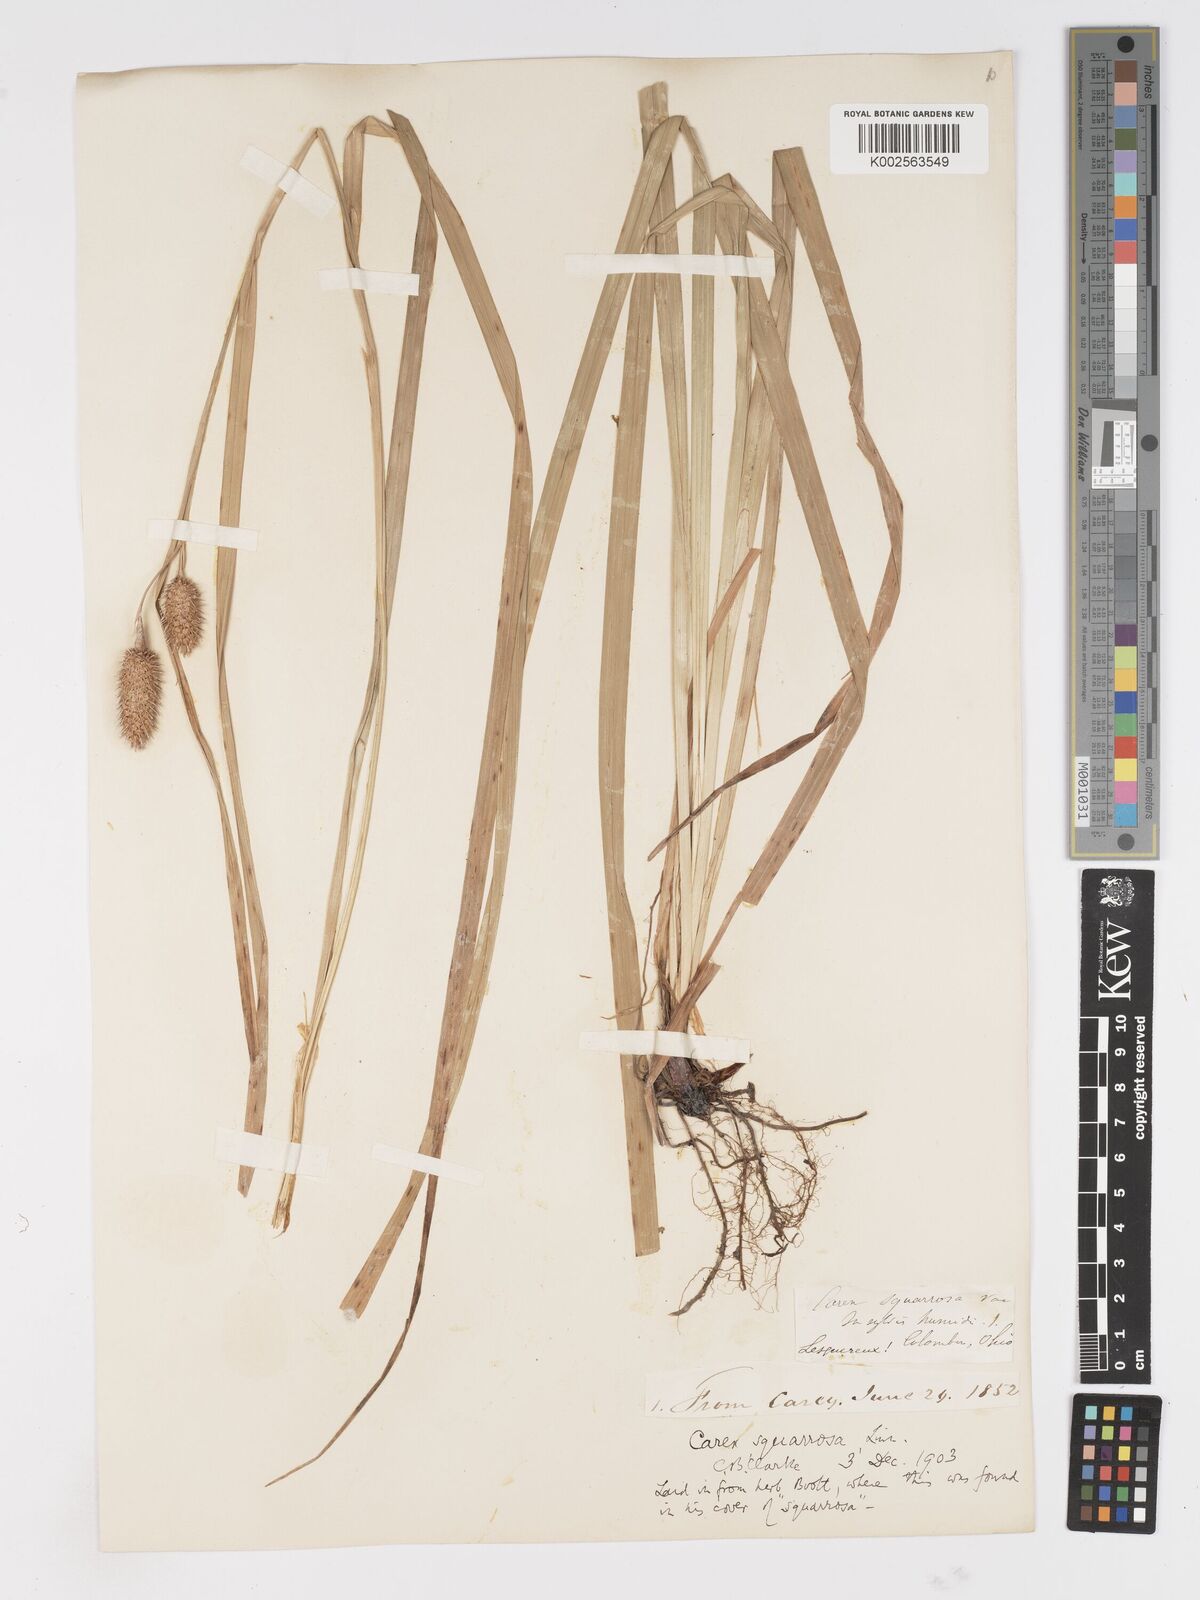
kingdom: Plantae
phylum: Tracheophyta
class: Liliopsida
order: Poales
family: Cyperaceae
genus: Carex
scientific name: Carex squarrosa
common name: Narrow-leaved cattail sedge
